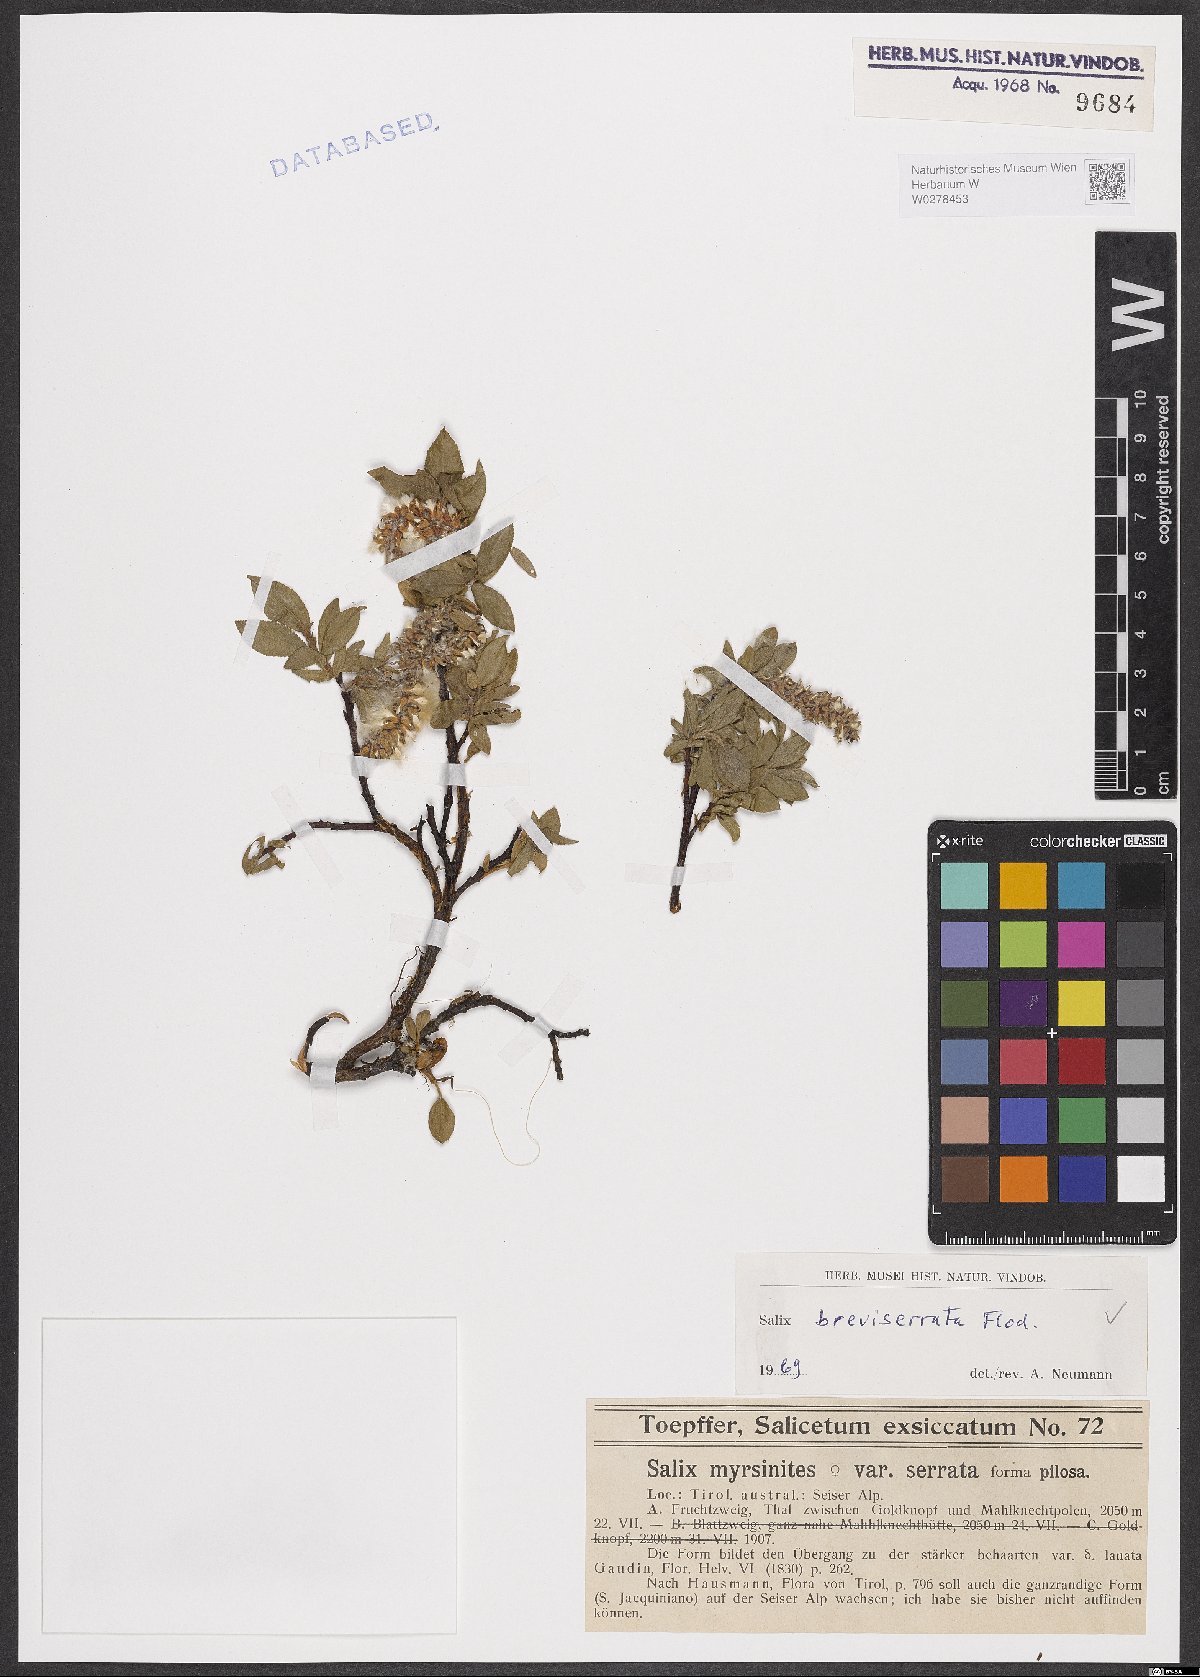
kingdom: Plantae
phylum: Tracheophyta
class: Magnoliopsida
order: Malpighiales
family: Salicaceae
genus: Salix
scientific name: Salix breviserrata
